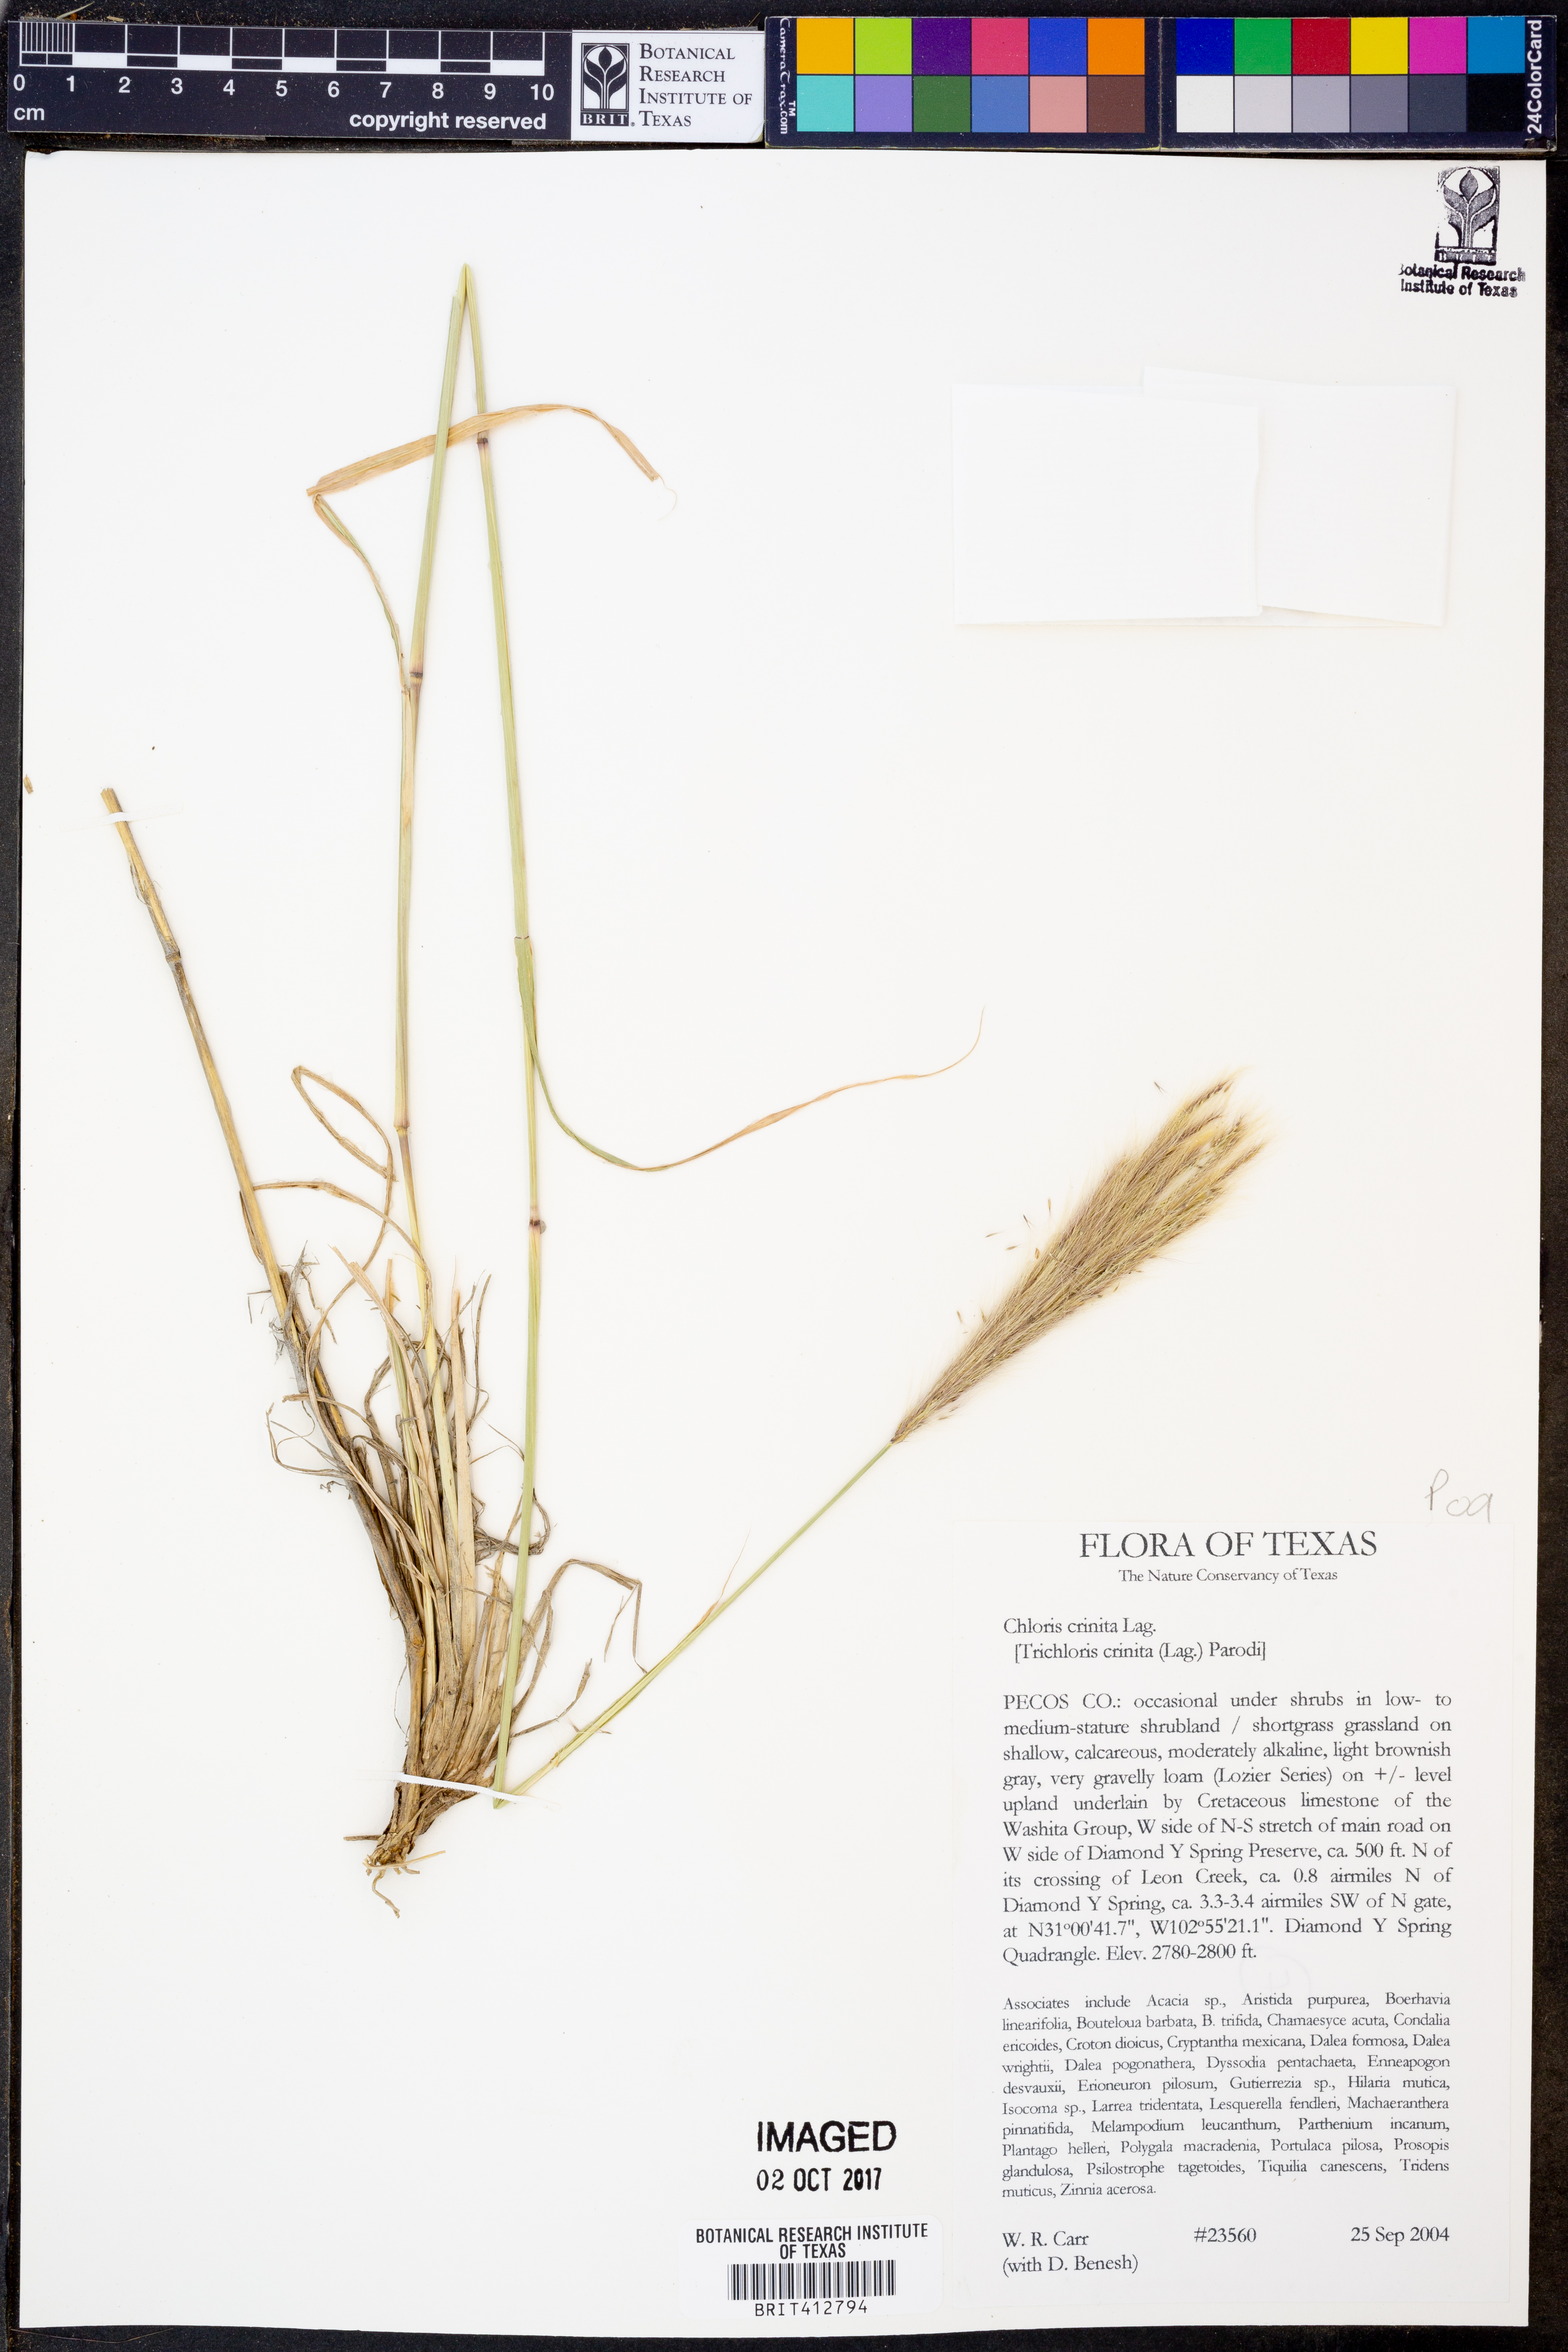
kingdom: Plantae
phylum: Tracheophyta
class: Liliopsida
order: Poales
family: Poaceae
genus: Leptochloa
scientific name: Leptochloa crinita
